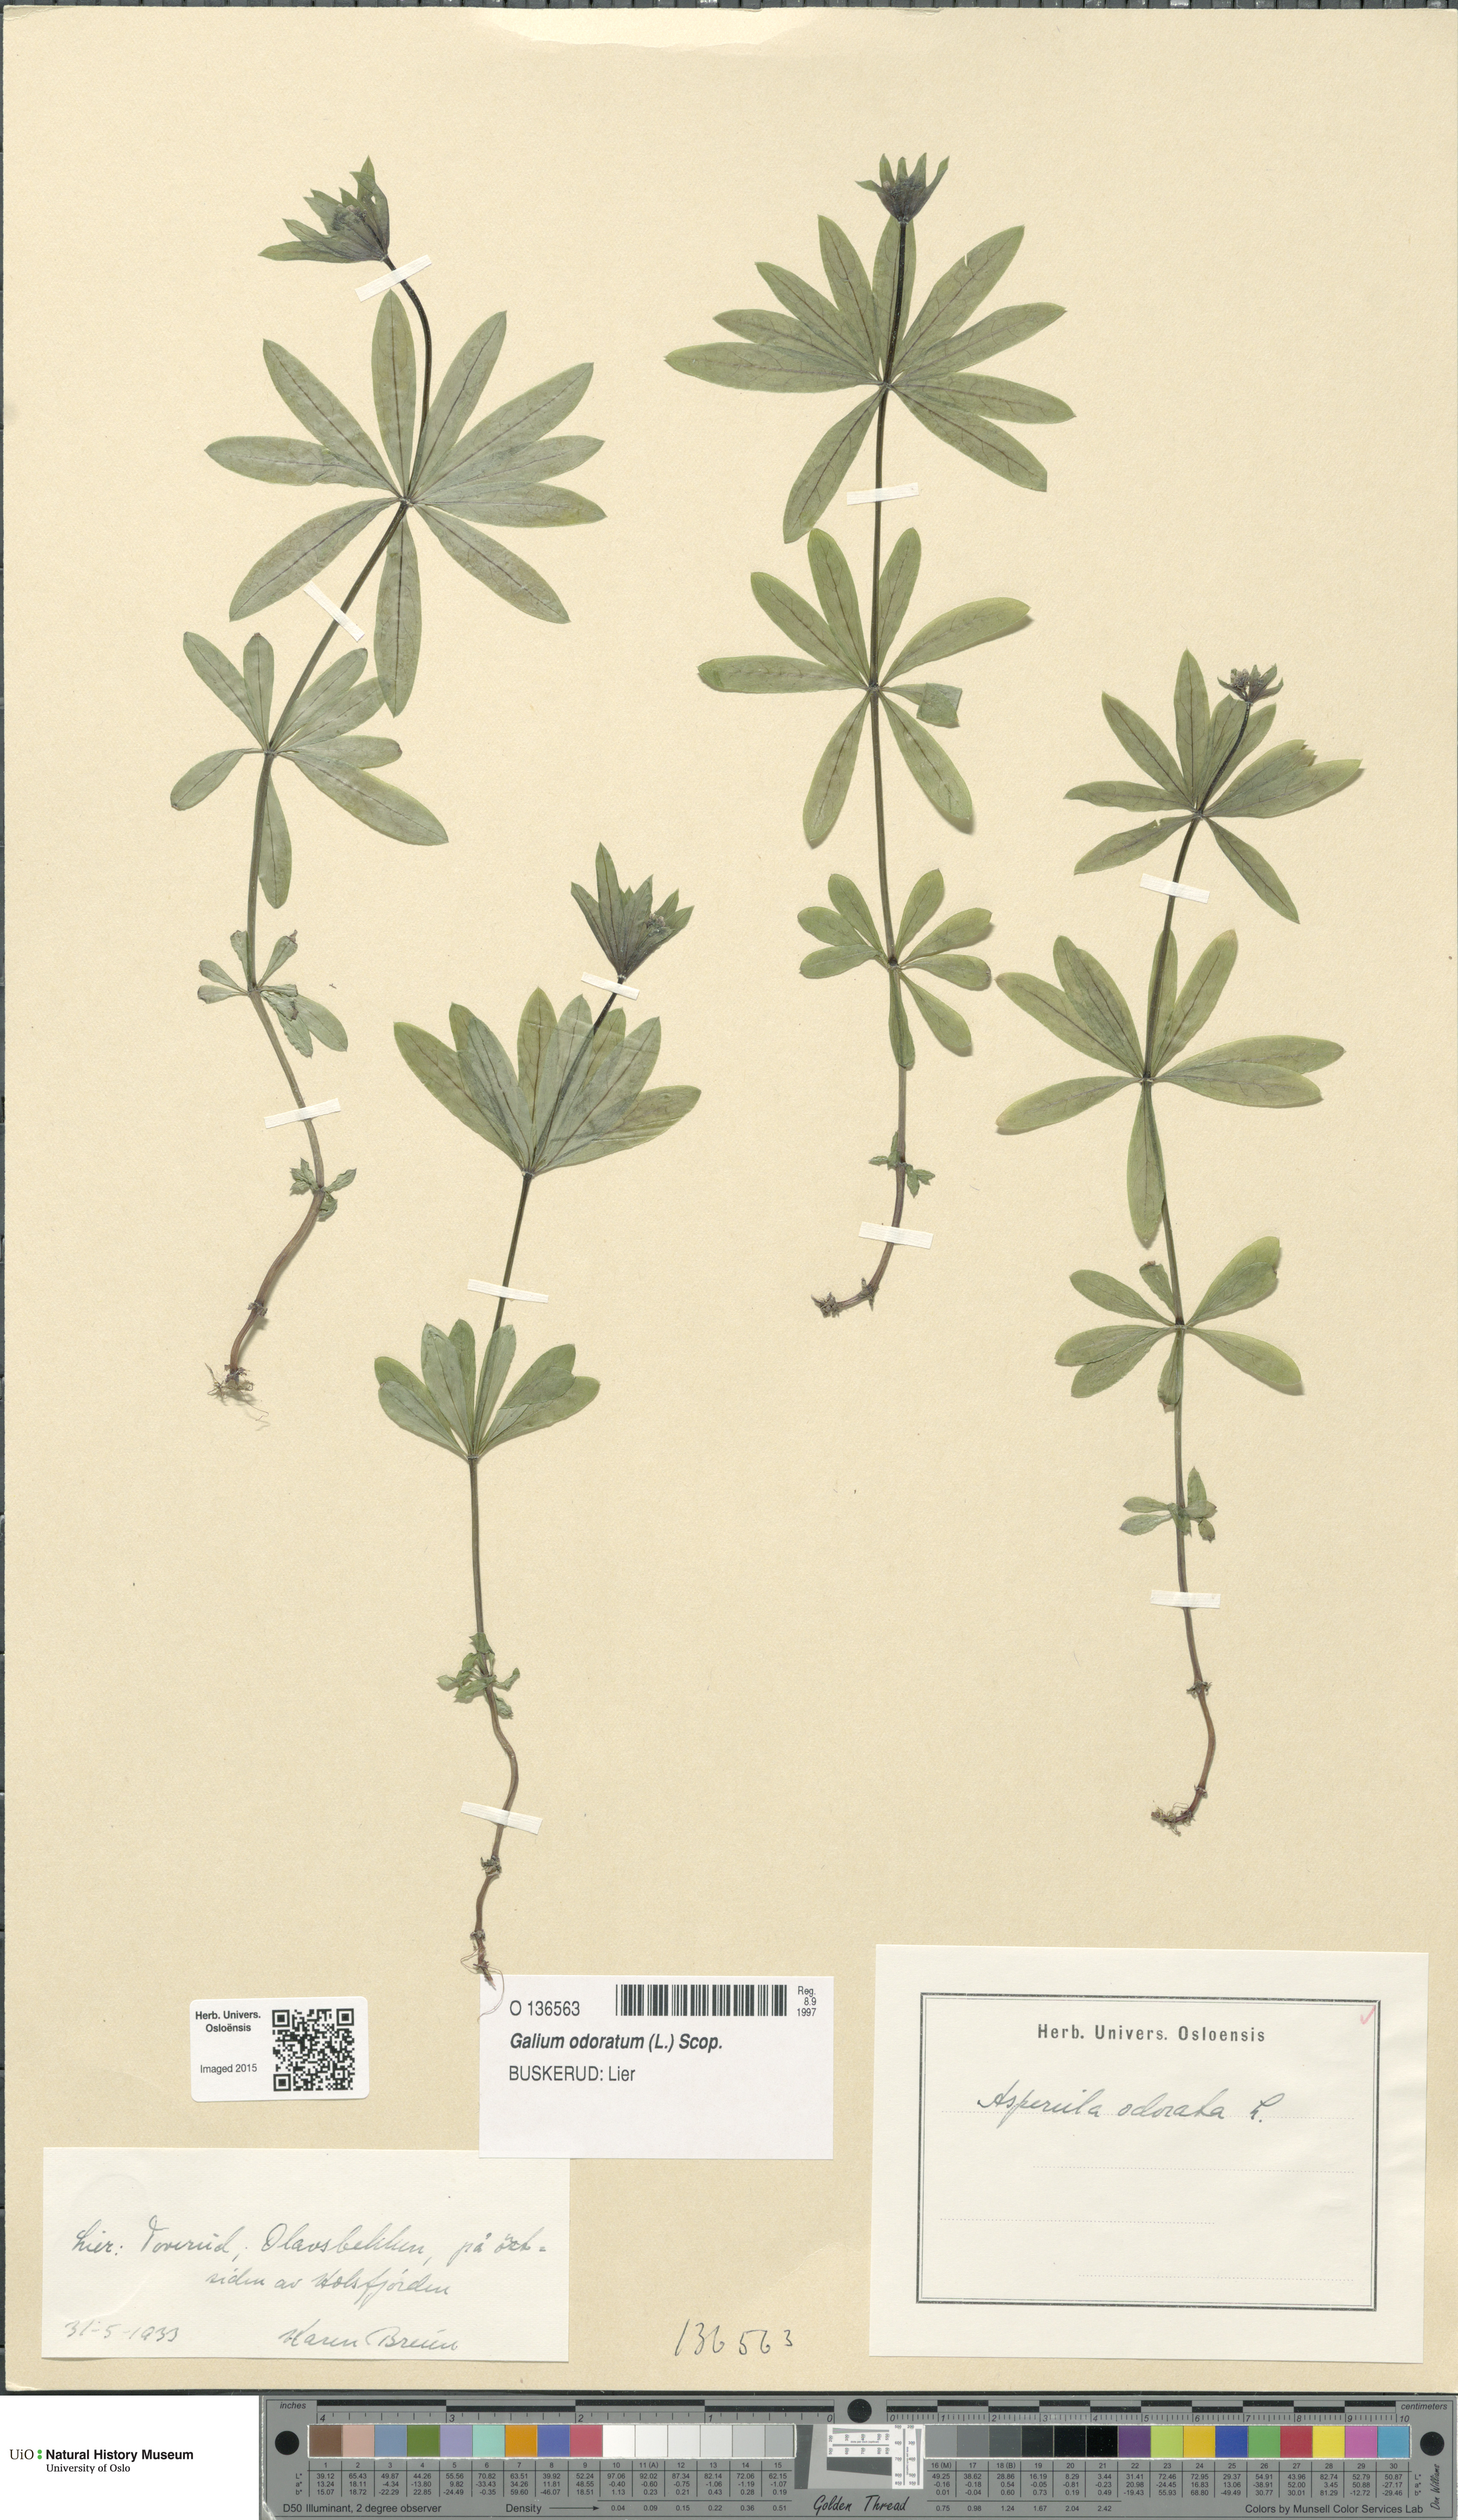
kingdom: Plantae
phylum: Tracheophyta
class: Magnoliopsida
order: Gentianales
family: Rubiaceae
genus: Galium
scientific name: Galium odoratum
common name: Sweet woodruff
